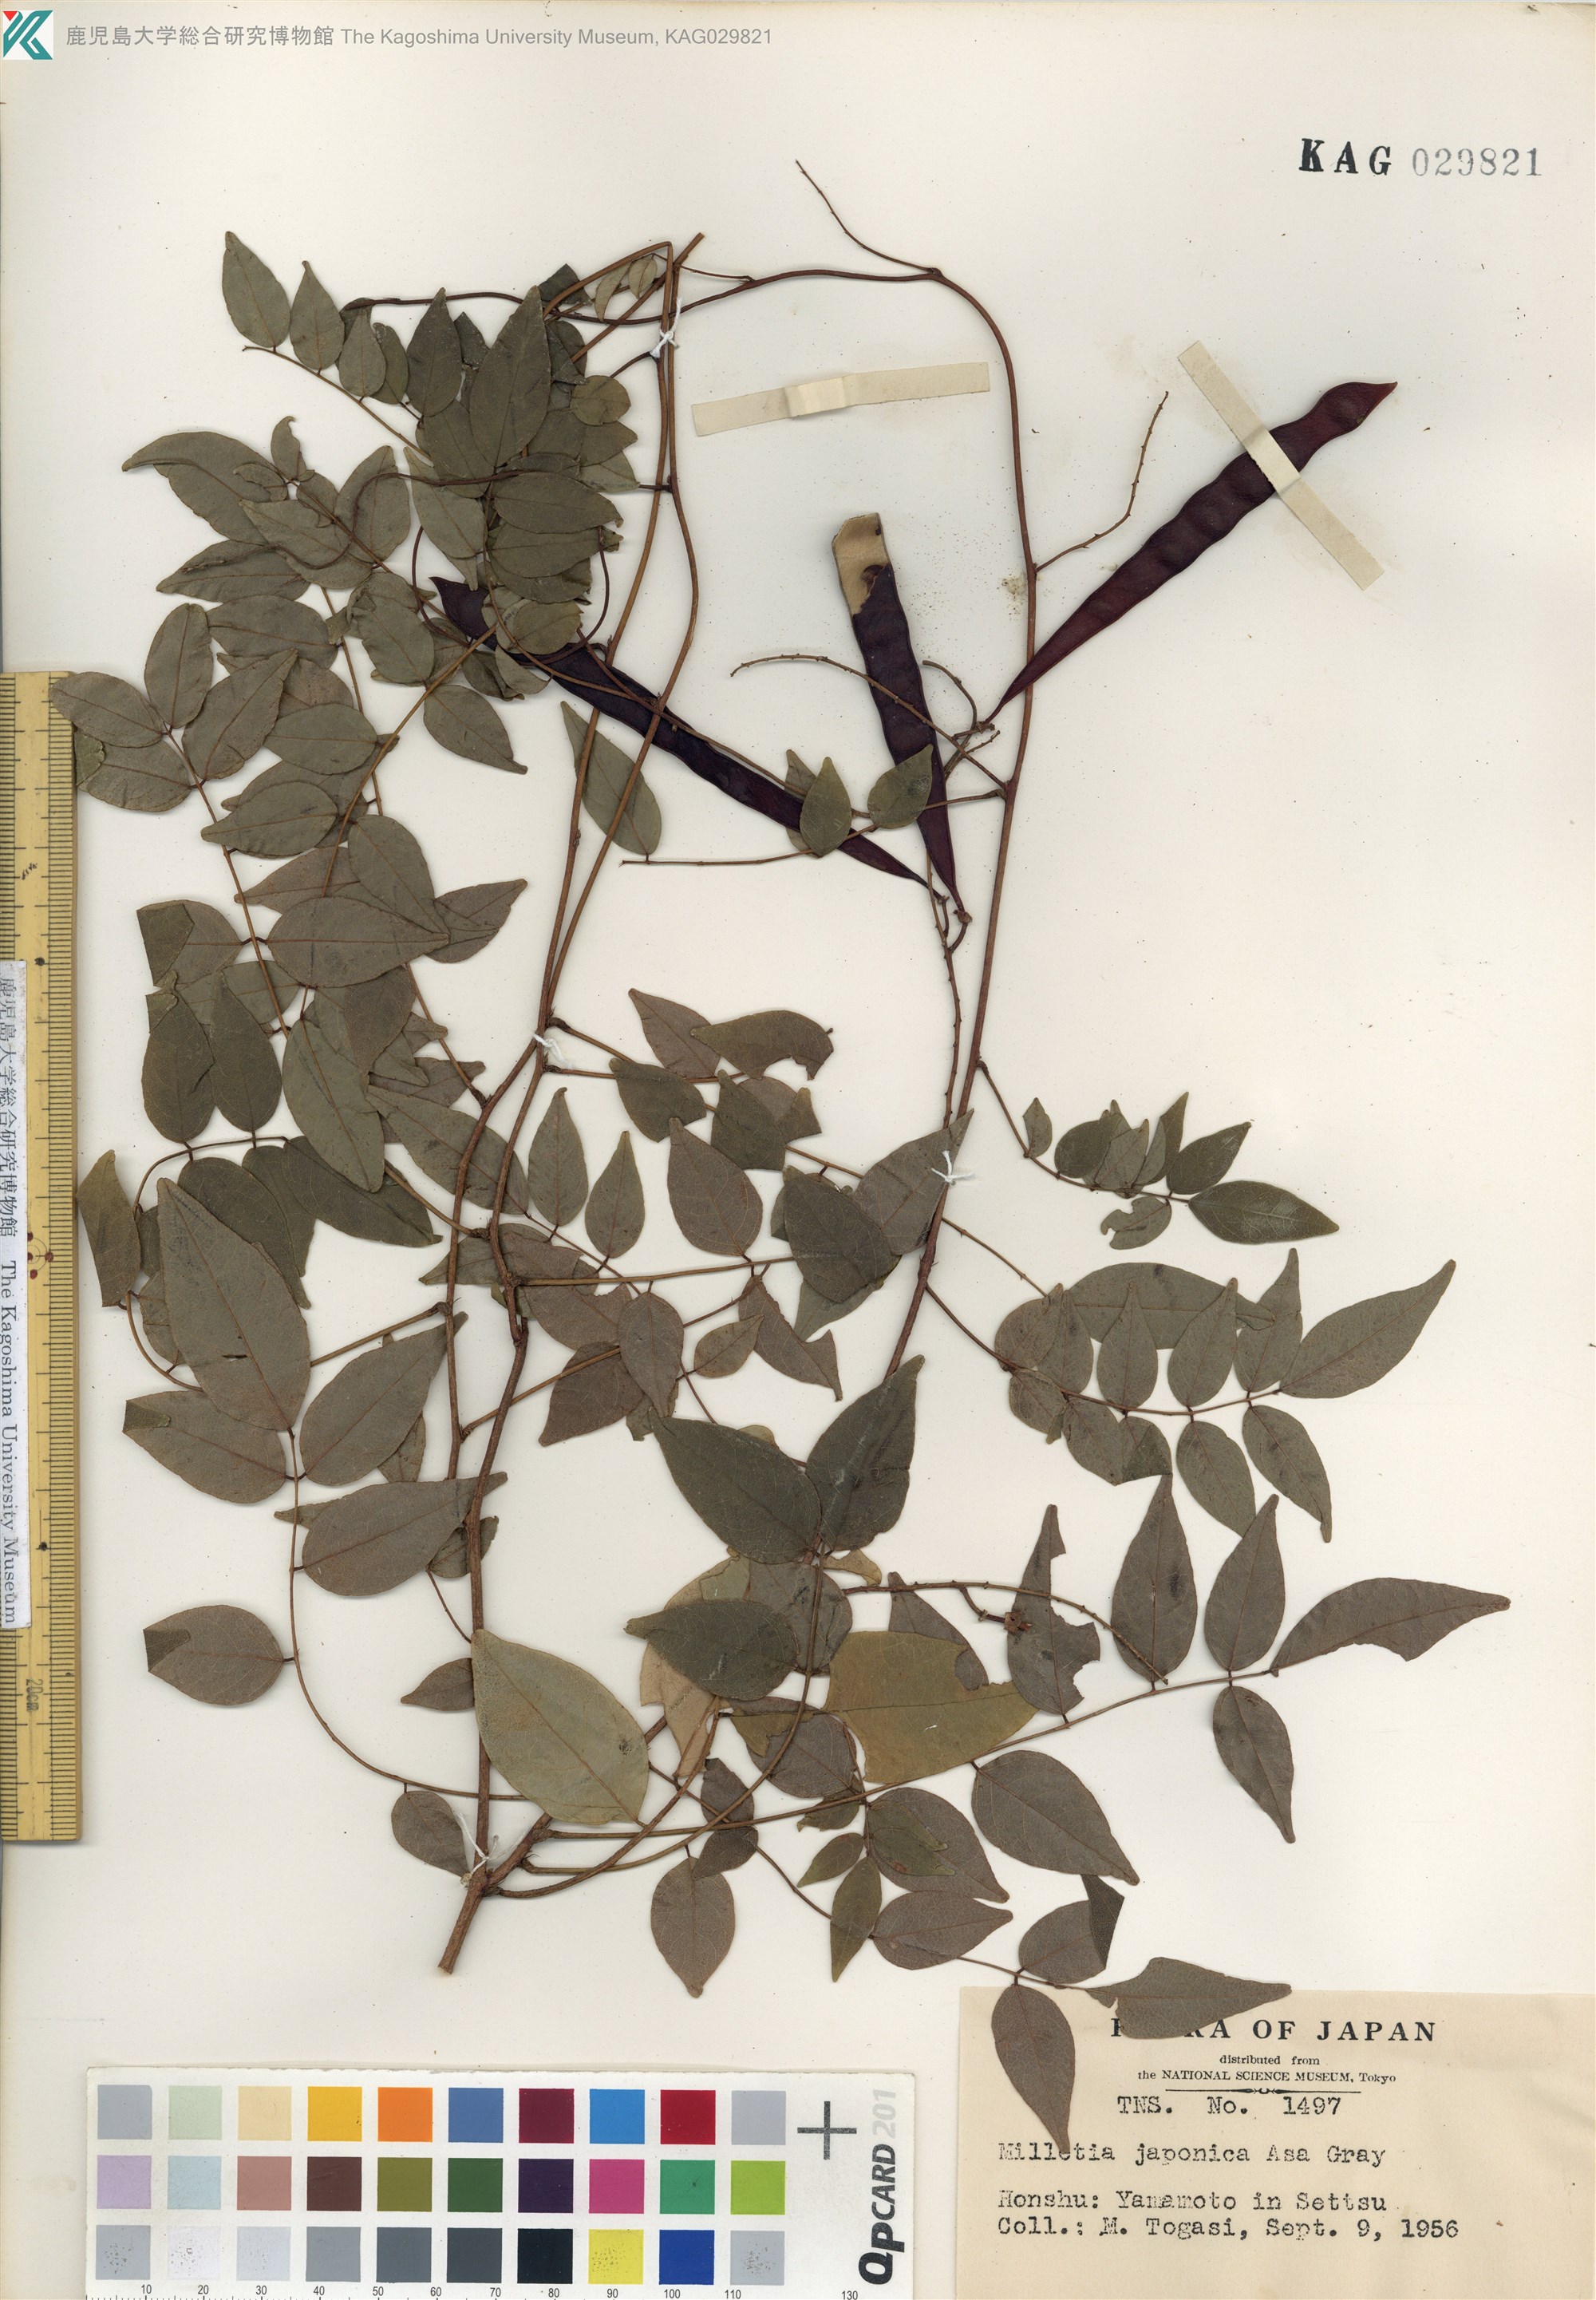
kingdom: Plantae
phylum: Tracheophyta
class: Magnoliopsida
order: Fabales
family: Fabaceae
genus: Wisteriopsis
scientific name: Wisteriopsis japonica
